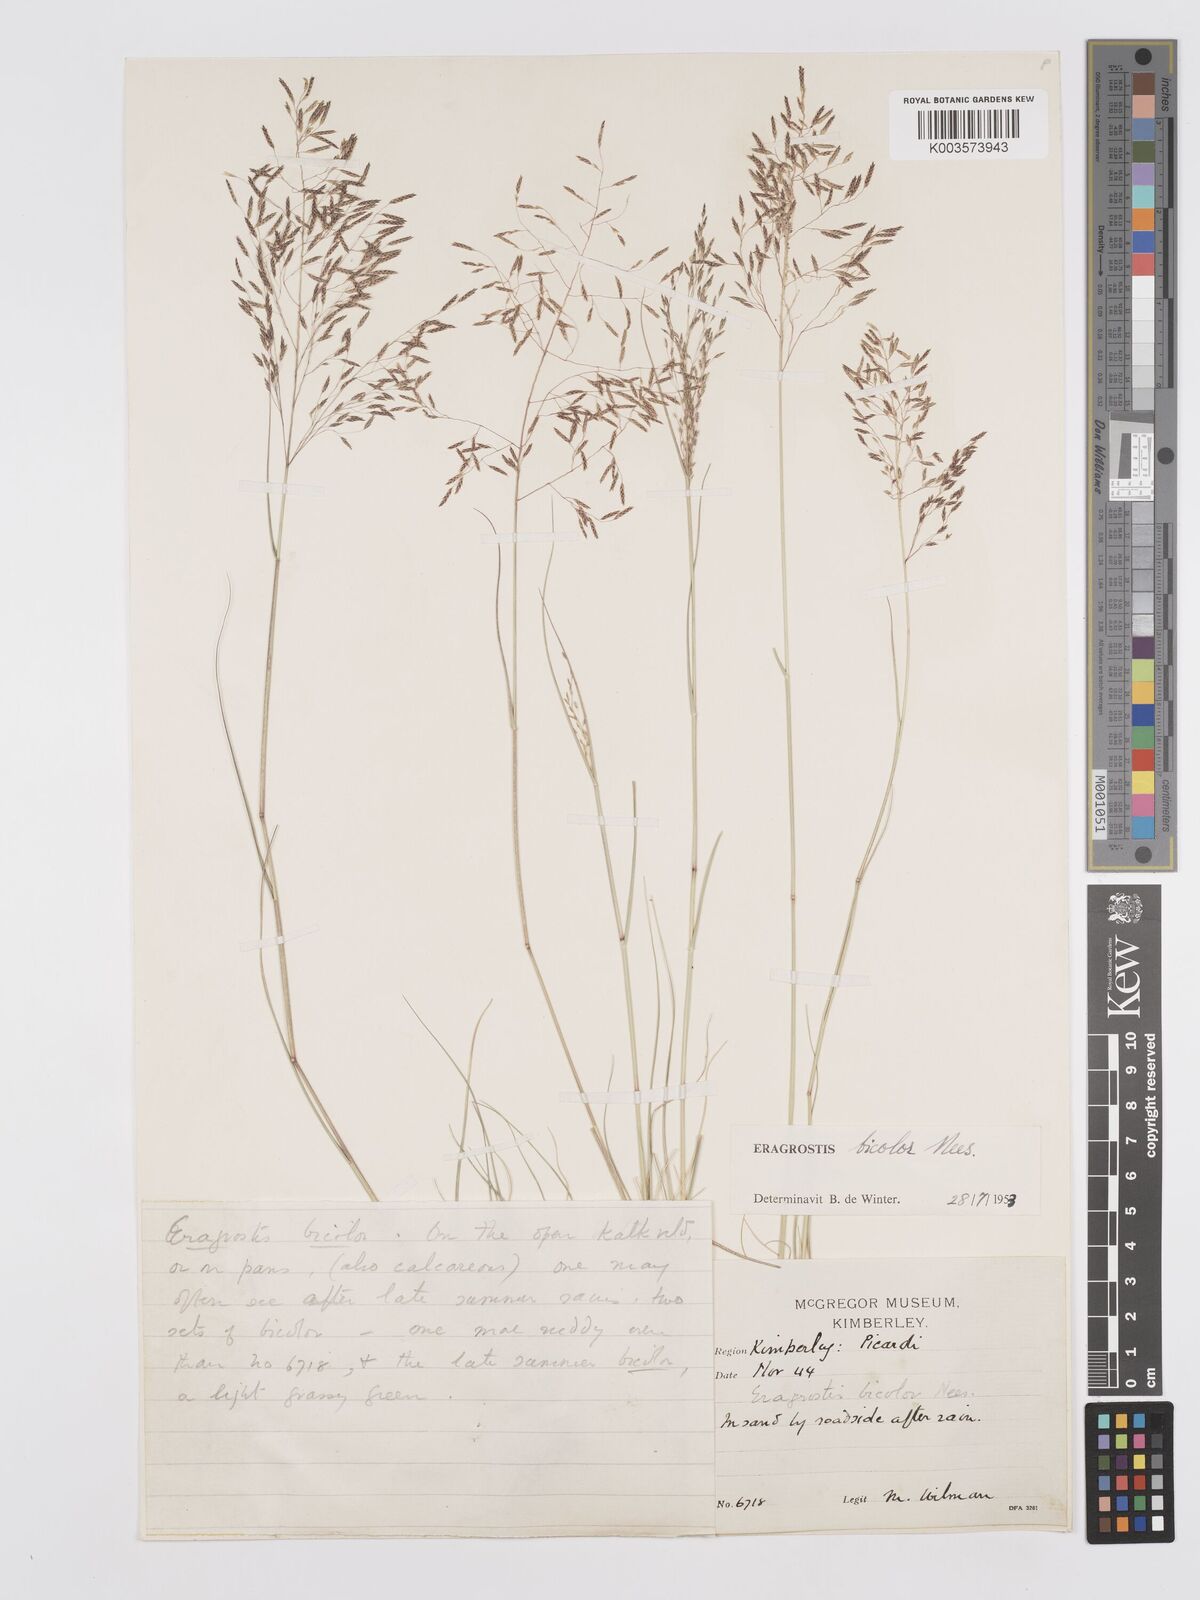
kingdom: Plantae
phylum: Tracheophyta
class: Liliopsida
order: Poales
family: Poaceae
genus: Eragrostis
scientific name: Eragrostis
